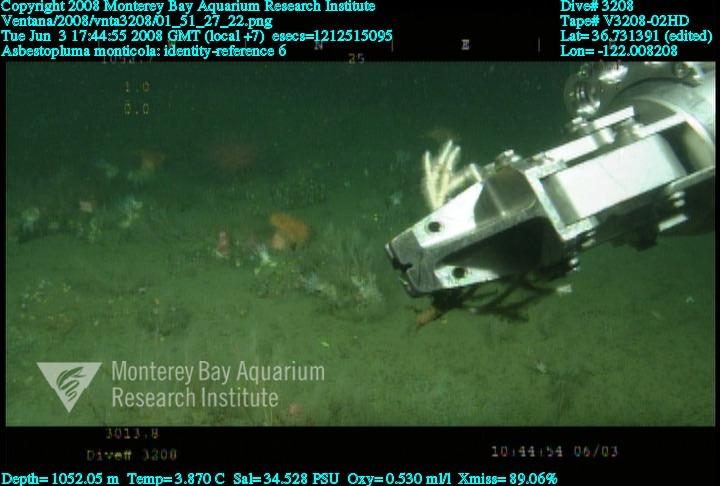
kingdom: Animalia
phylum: Porifera
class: Demospongiae
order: Poecilosclerida
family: Cladorhizidae
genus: Asbestopluma
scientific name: Asbestopluma monticola
